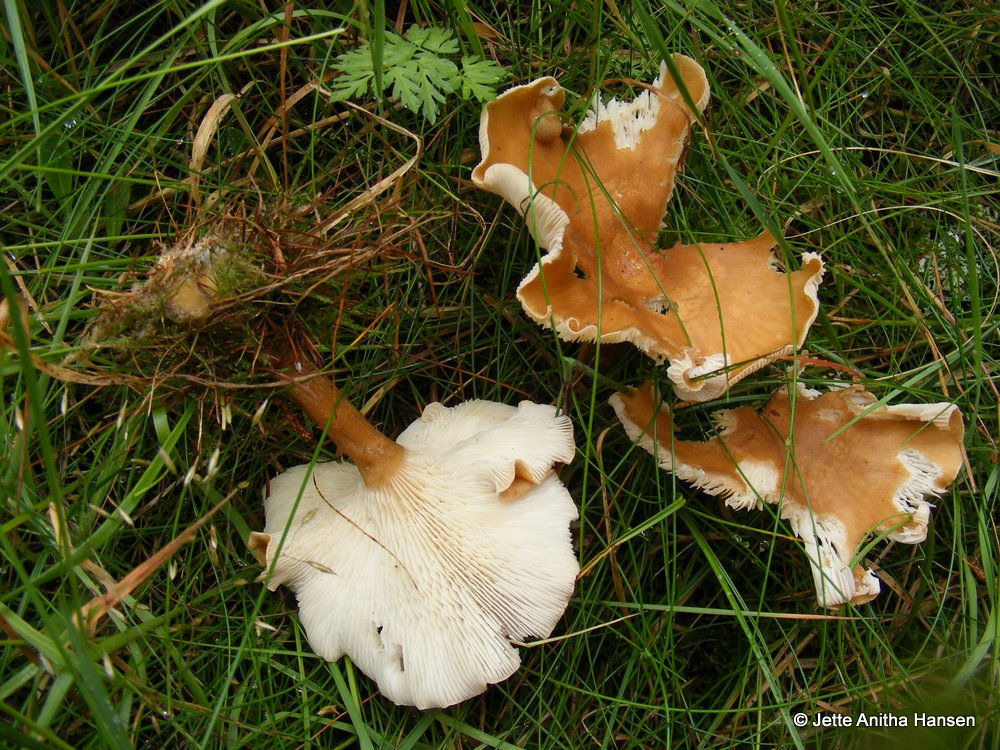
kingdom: Fungi
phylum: Basidiomycota
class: Agaricomycetes
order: Agaricales
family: Tricholomataceae
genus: Clitocybe
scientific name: Clitocybe costata
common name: brunstokket tragthat
